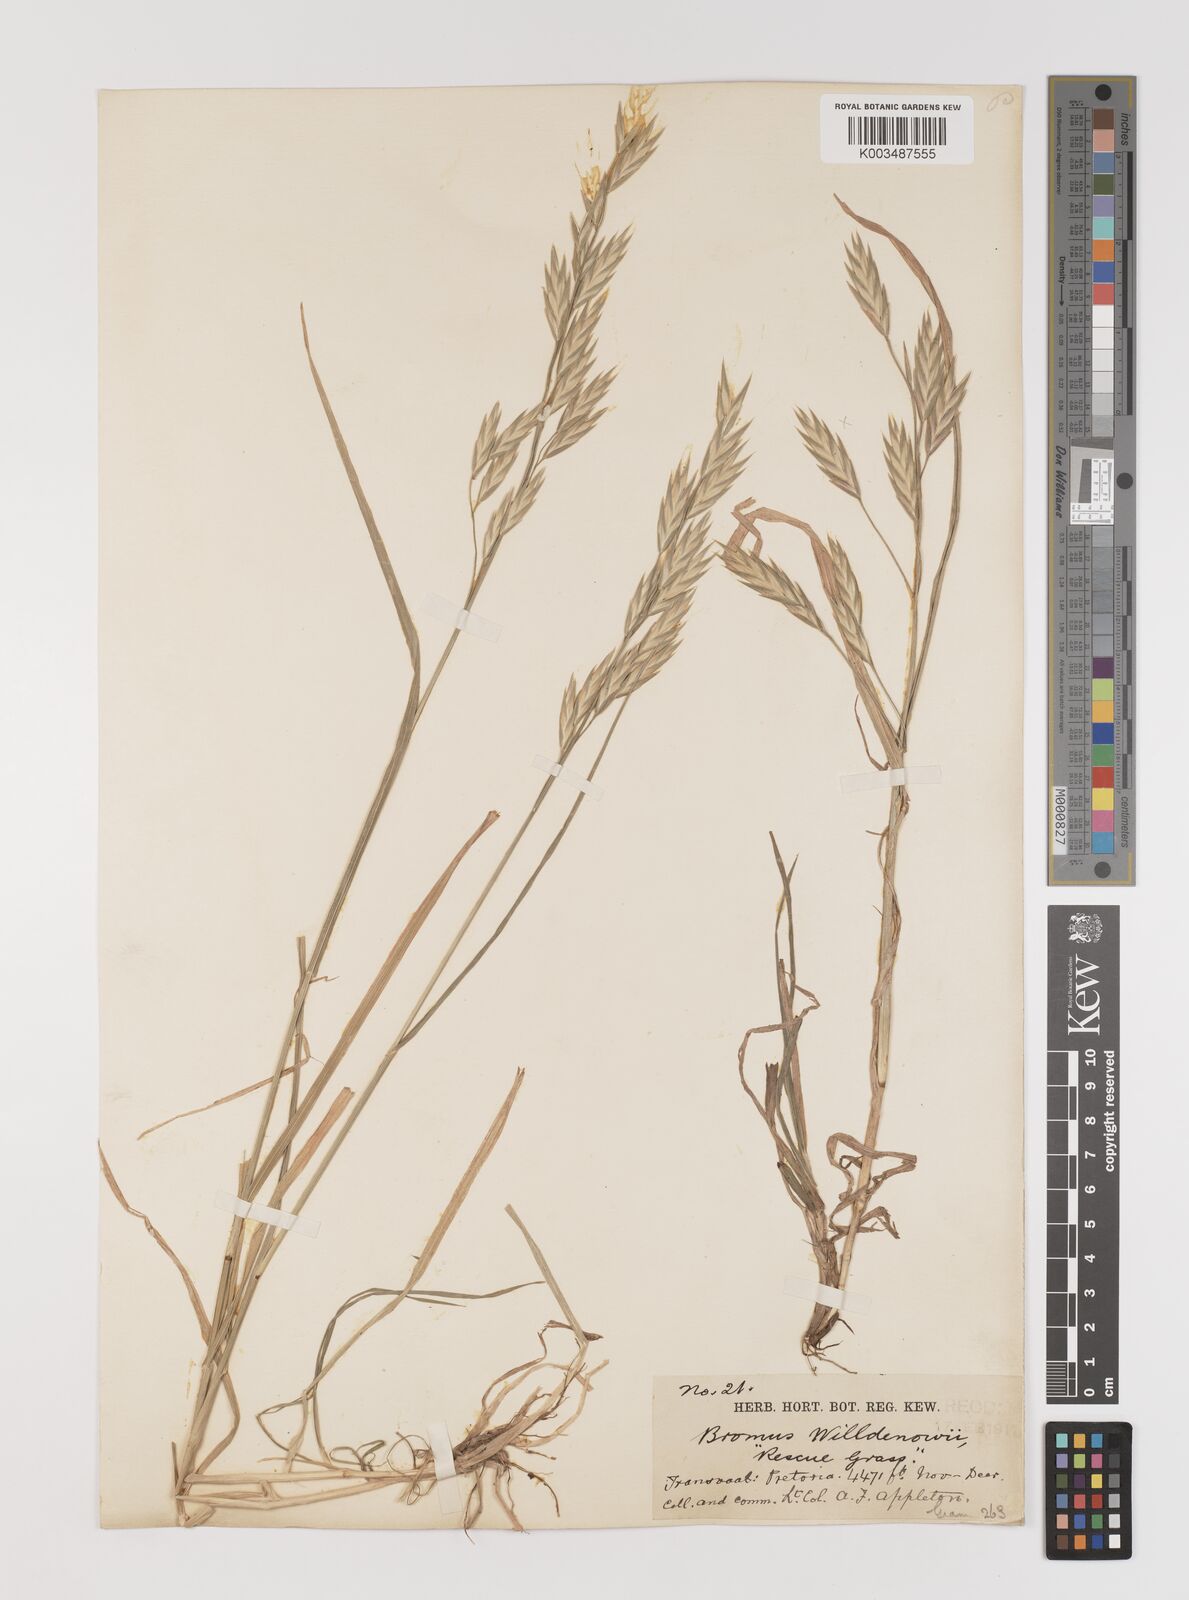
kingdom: Plantae
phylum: Tracheophyta
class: Liliopsida
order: Poales
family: Poaceae
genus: Bromus
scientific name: Bromus catharticus
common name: Rescuegrass
